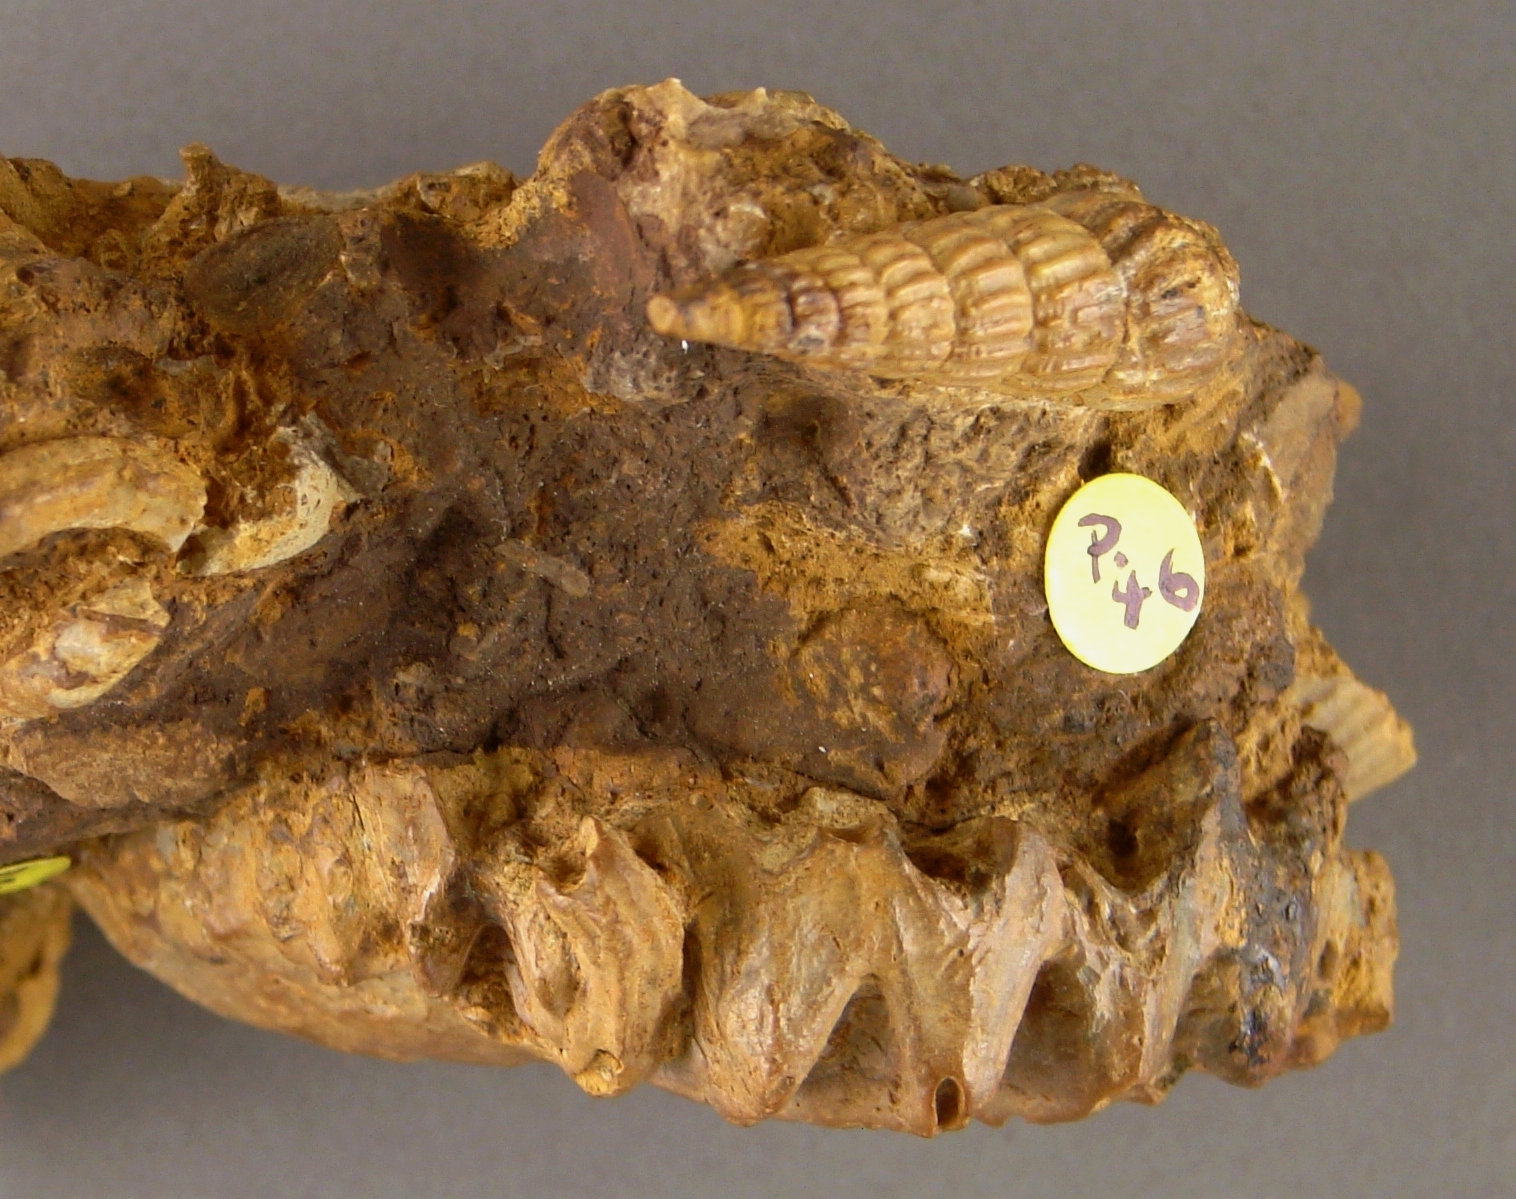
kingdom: Animalia
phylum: Mollusca
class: Gastropoda
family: Zygopleuridae
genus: Katosira
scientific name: Katosira
